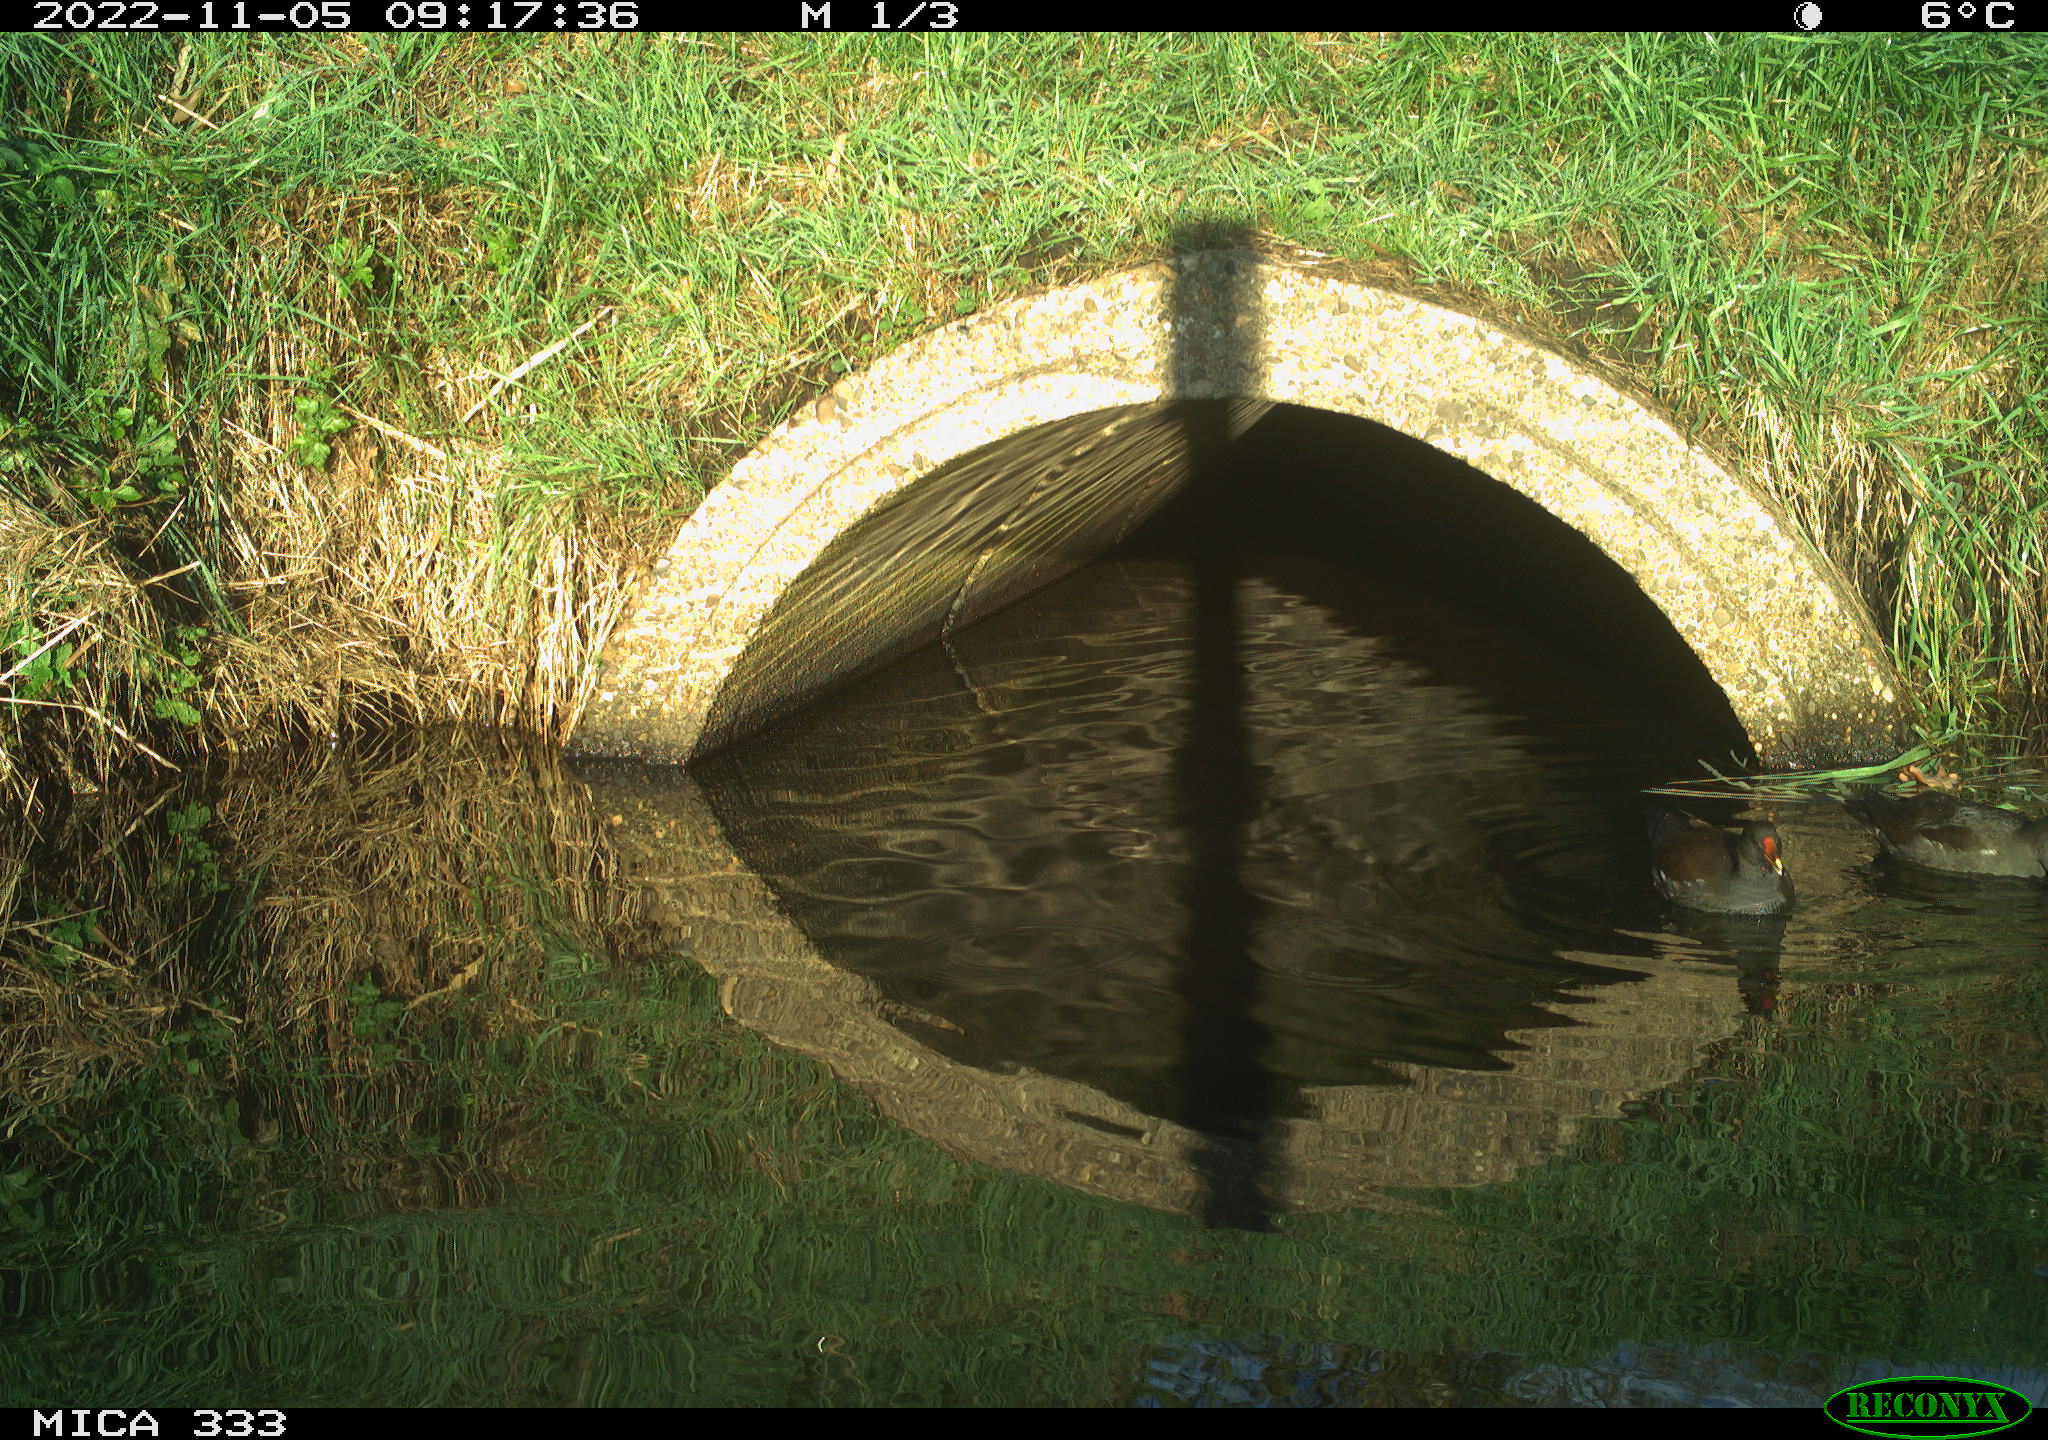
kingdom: Animalia
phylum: Chordata
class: Aves
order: Gruiformes
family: Rallidae
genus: Gallinula
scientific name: Gallinula chloropus
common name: Common moorhen
